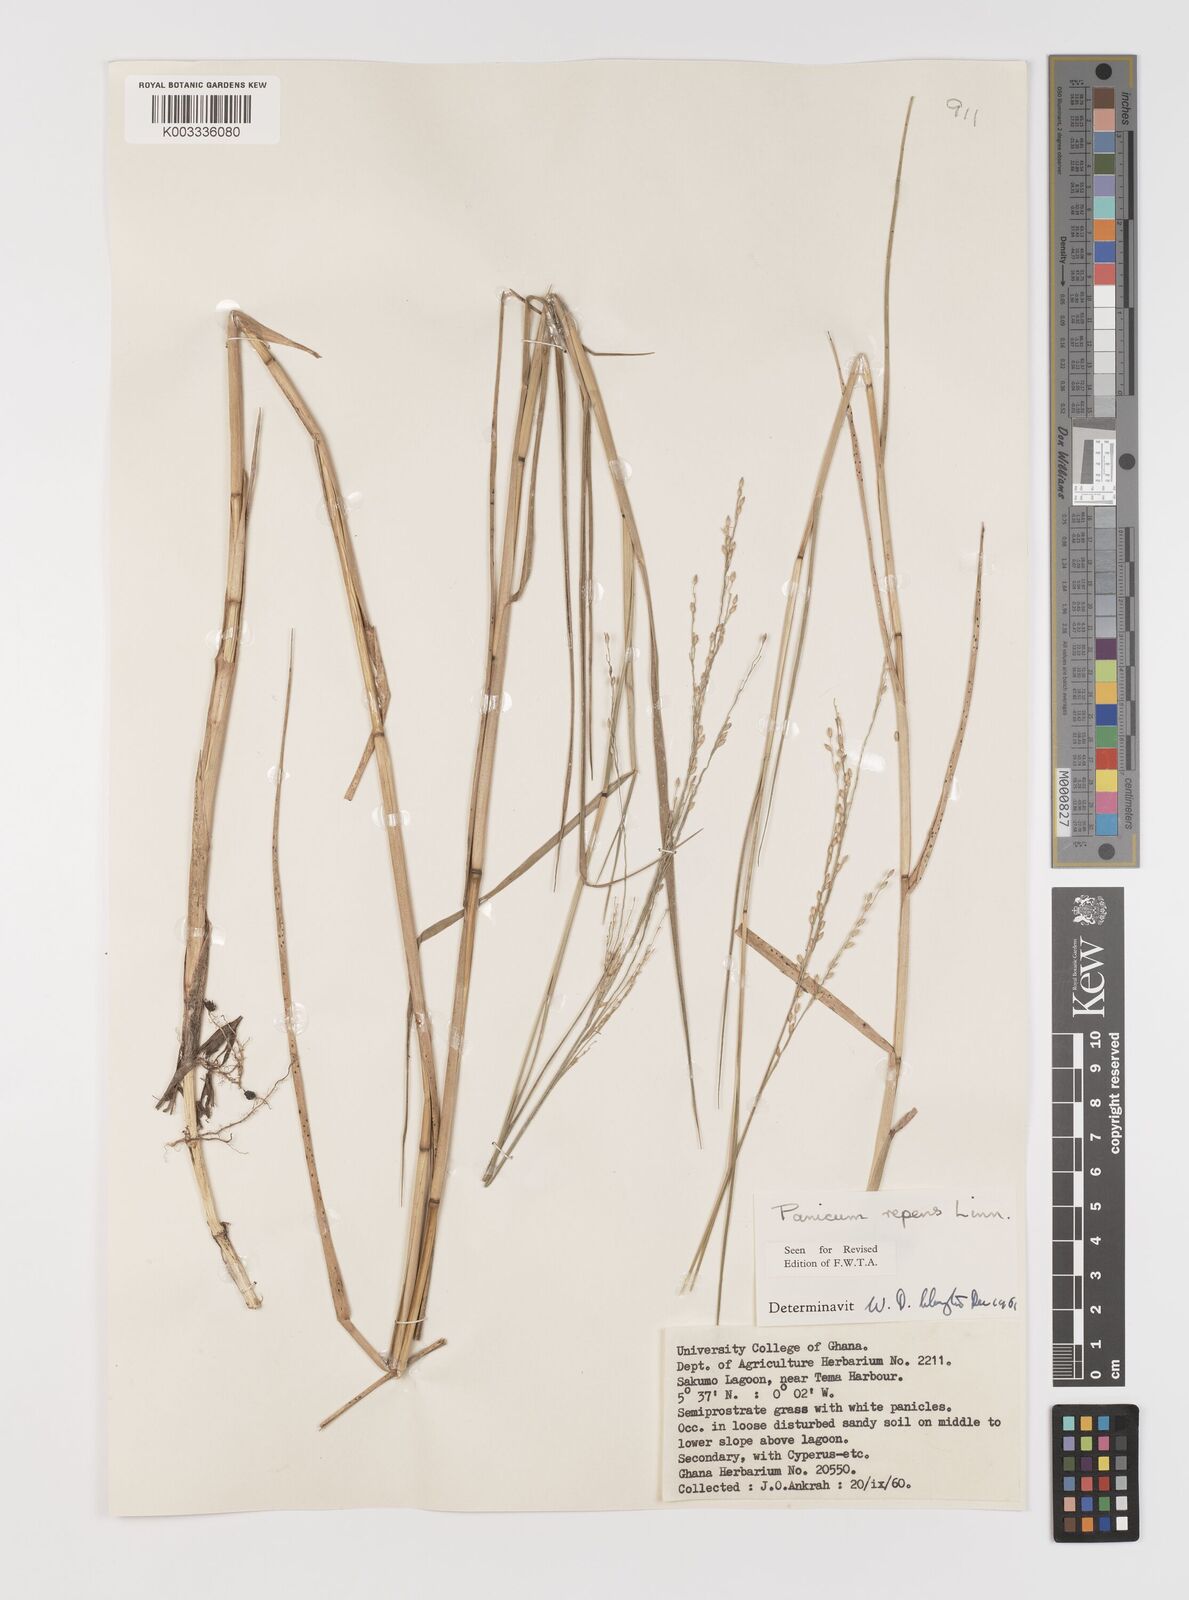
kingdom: Plantae
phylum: Tracheophyta
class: Liliopsida
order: Poales
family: Poaceae
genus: Panicum
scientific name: Panicum repens
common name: Torpedo grass
